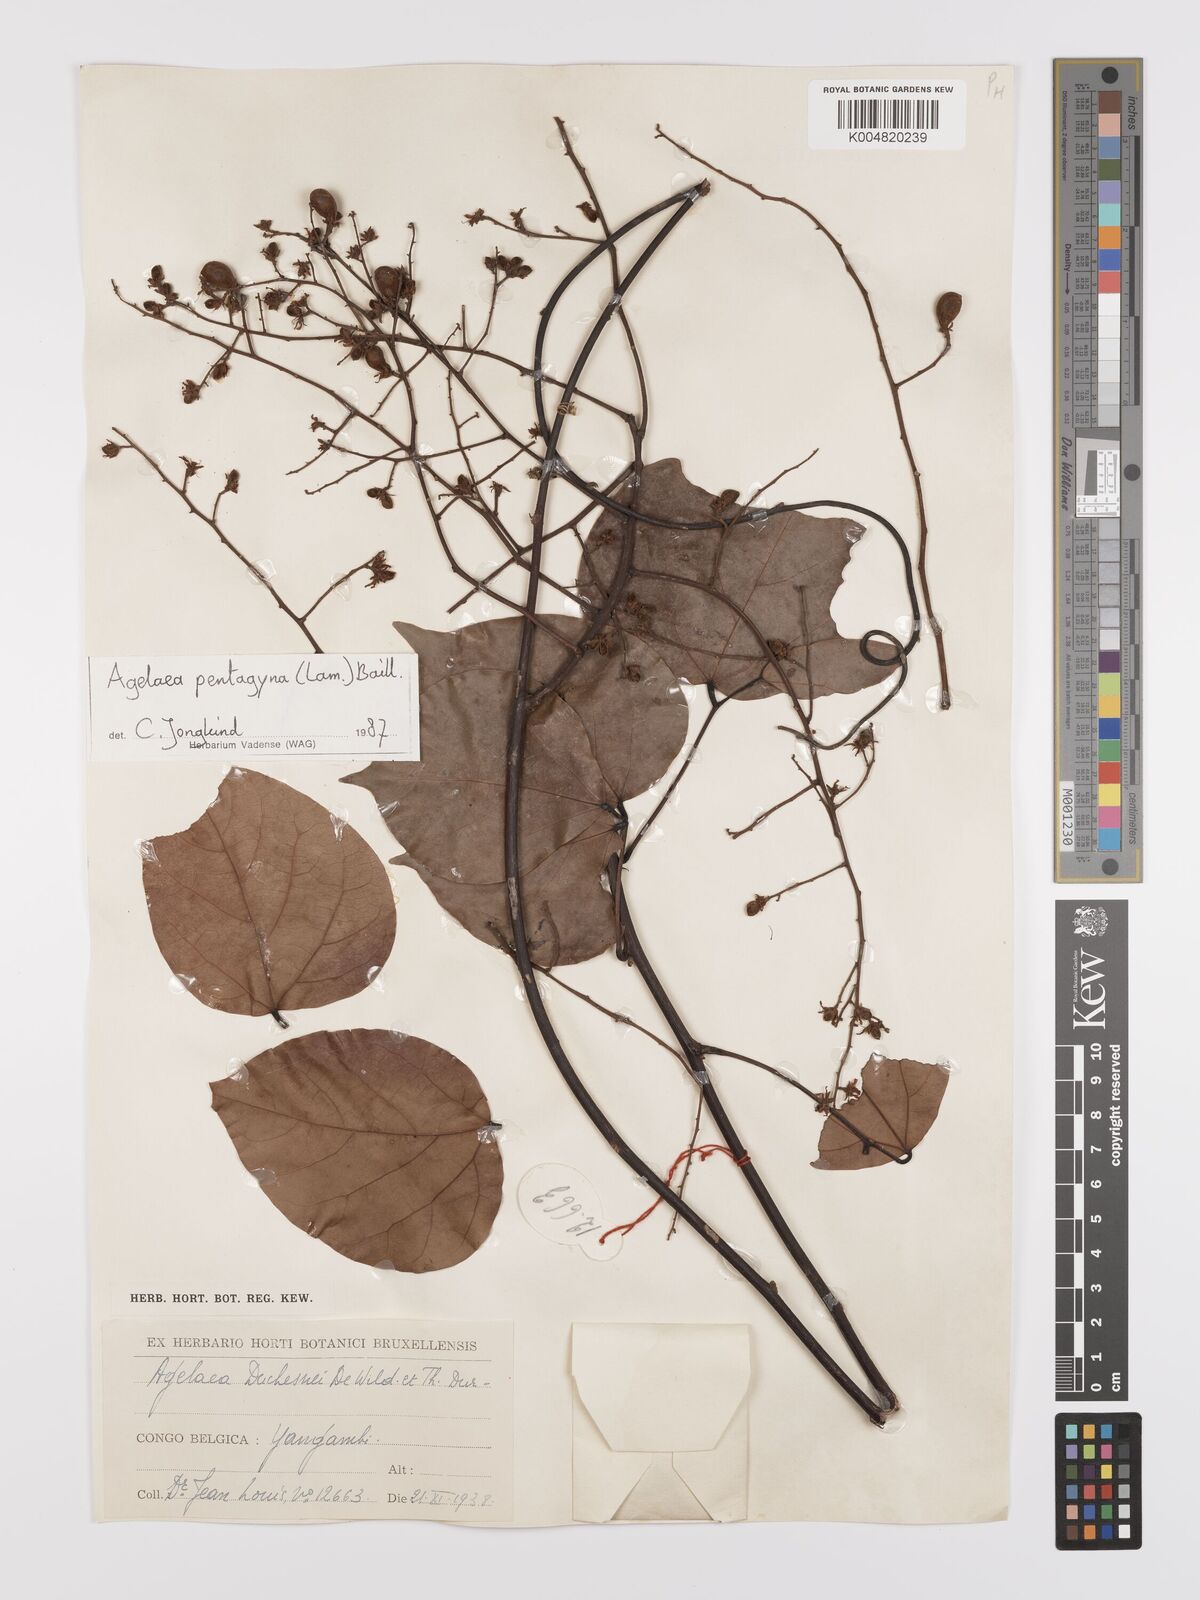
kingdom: Plantae
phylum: Tracheophyta
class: Magnoliopsida
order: Oxalidales
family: Connaraceae
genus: Agelaea
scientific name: Agelaea pentagyna
